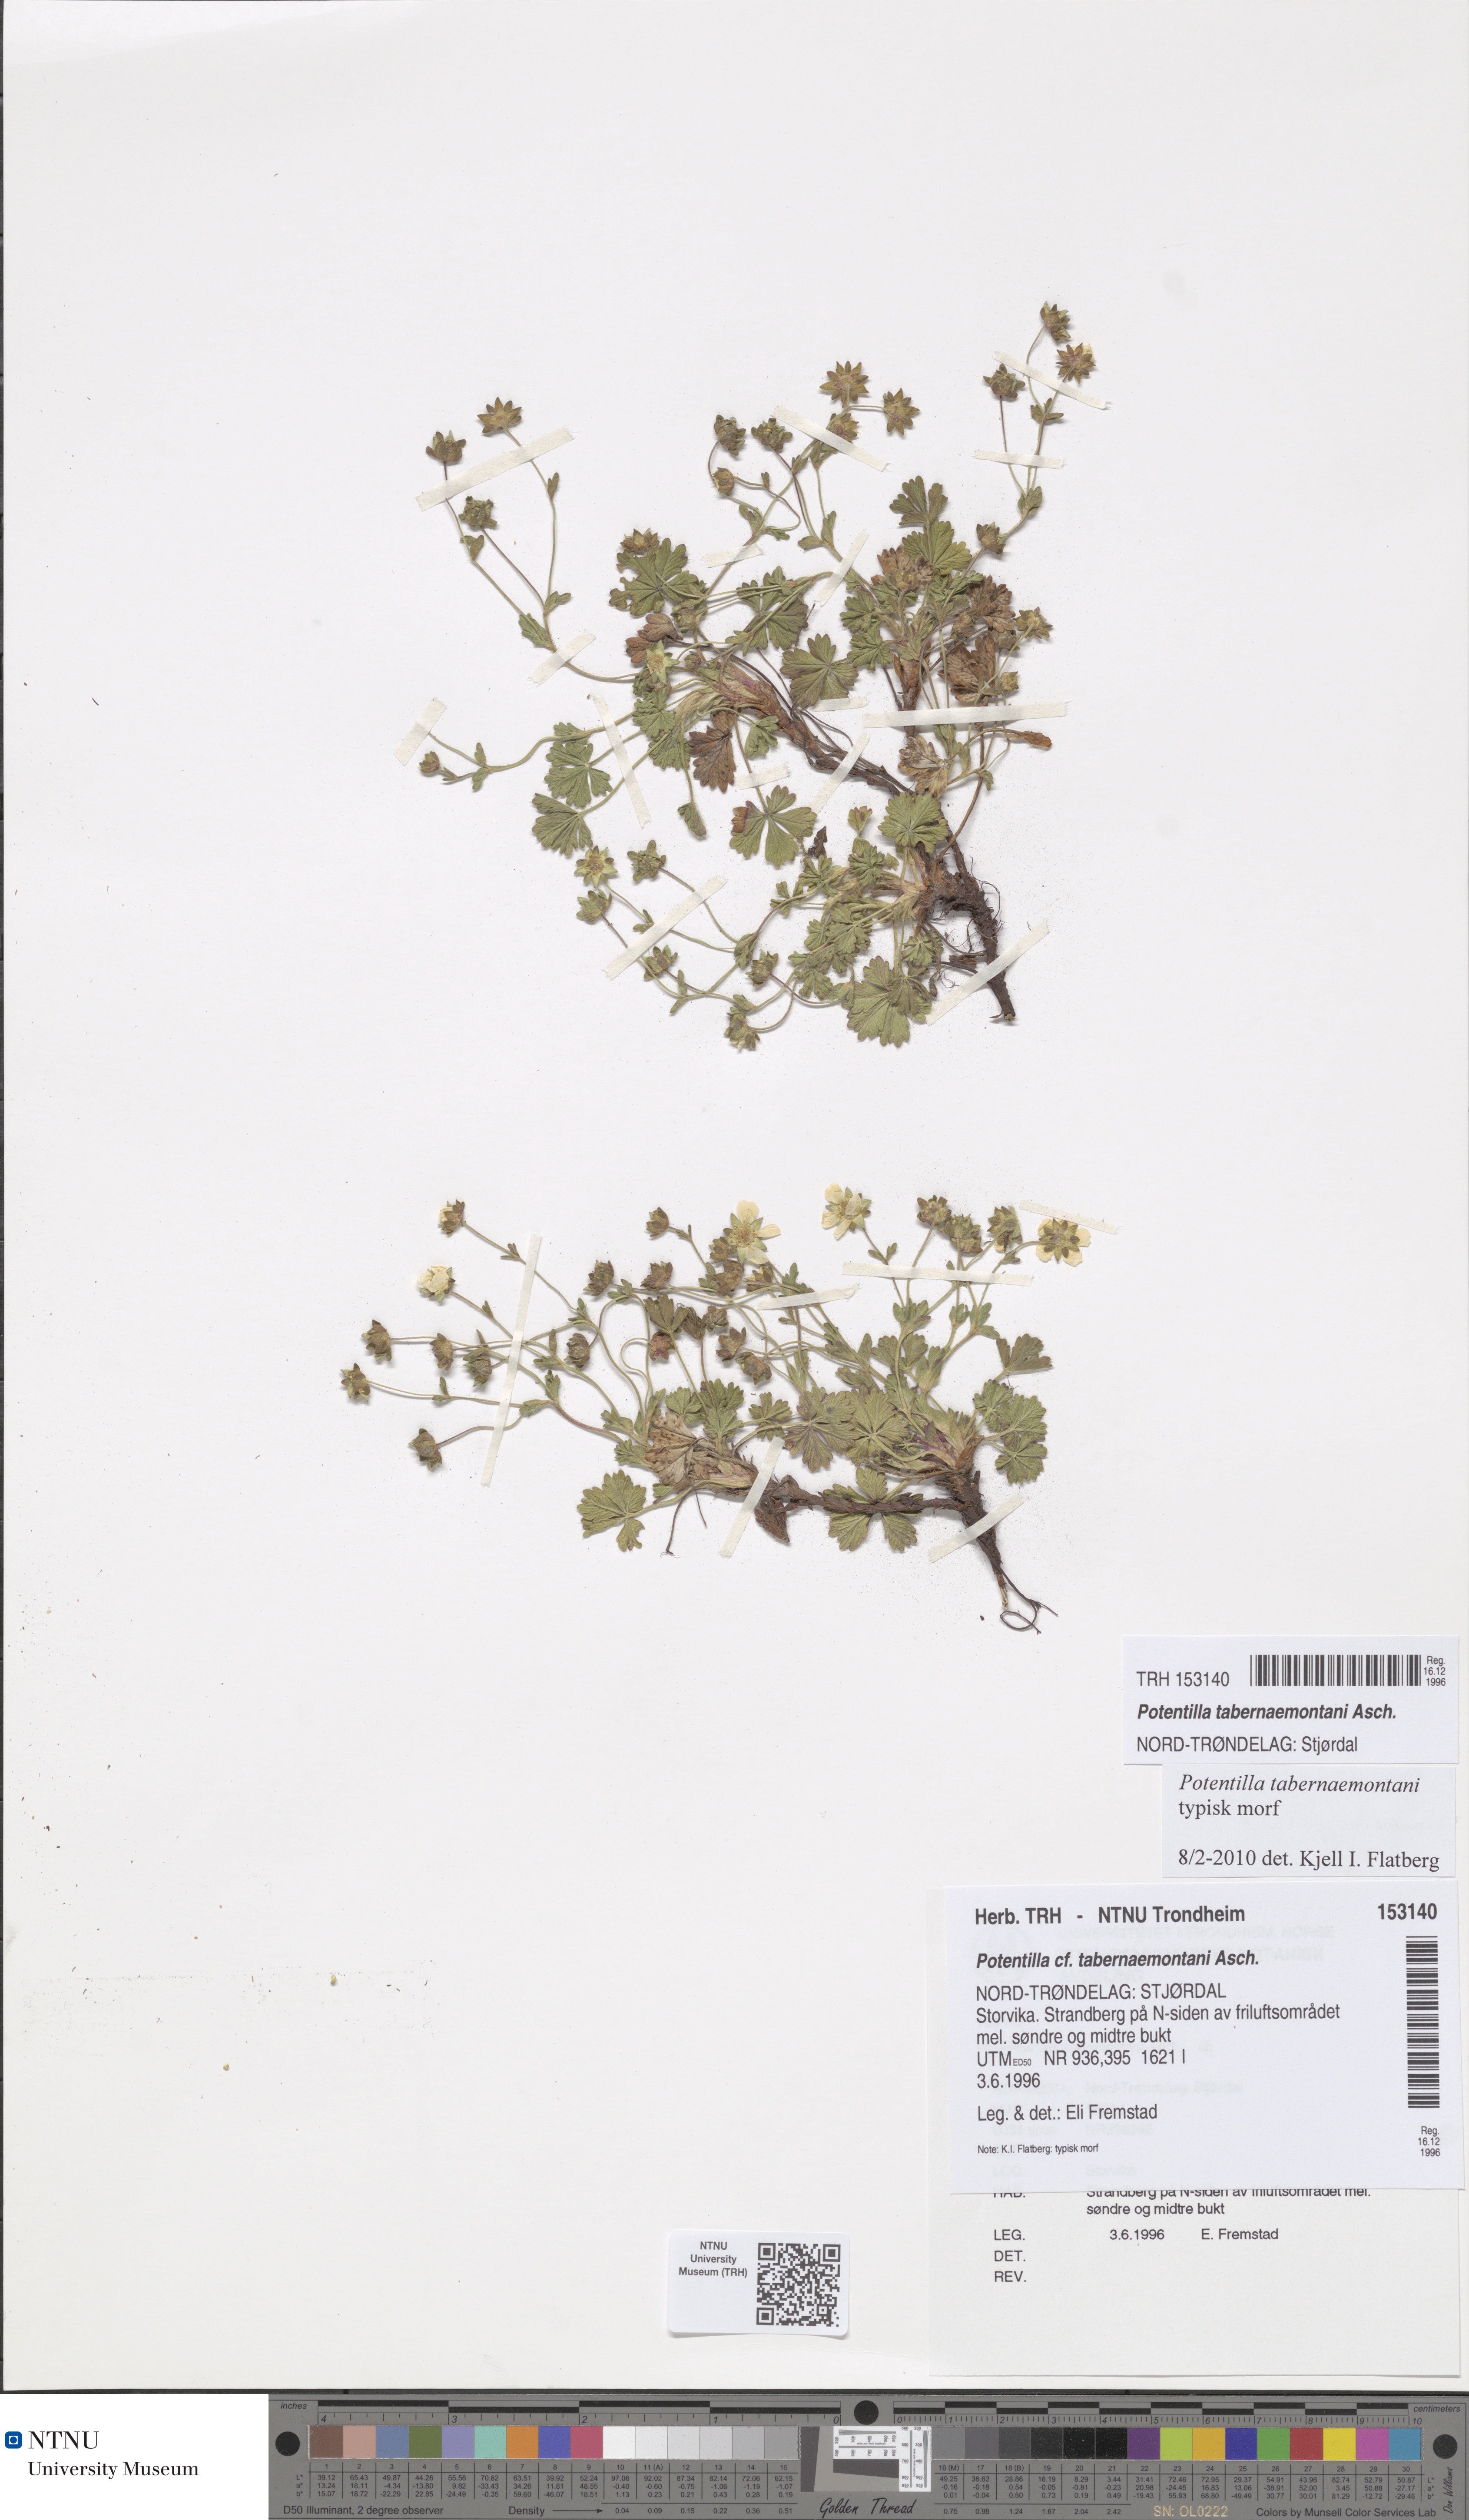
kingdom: Plantae
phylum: Tracheophyta
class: Magnoliopsida
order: Rosales
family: Rosaceae
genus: Potentilla
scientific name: Potentilla verna
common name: Spring cinquefoil
